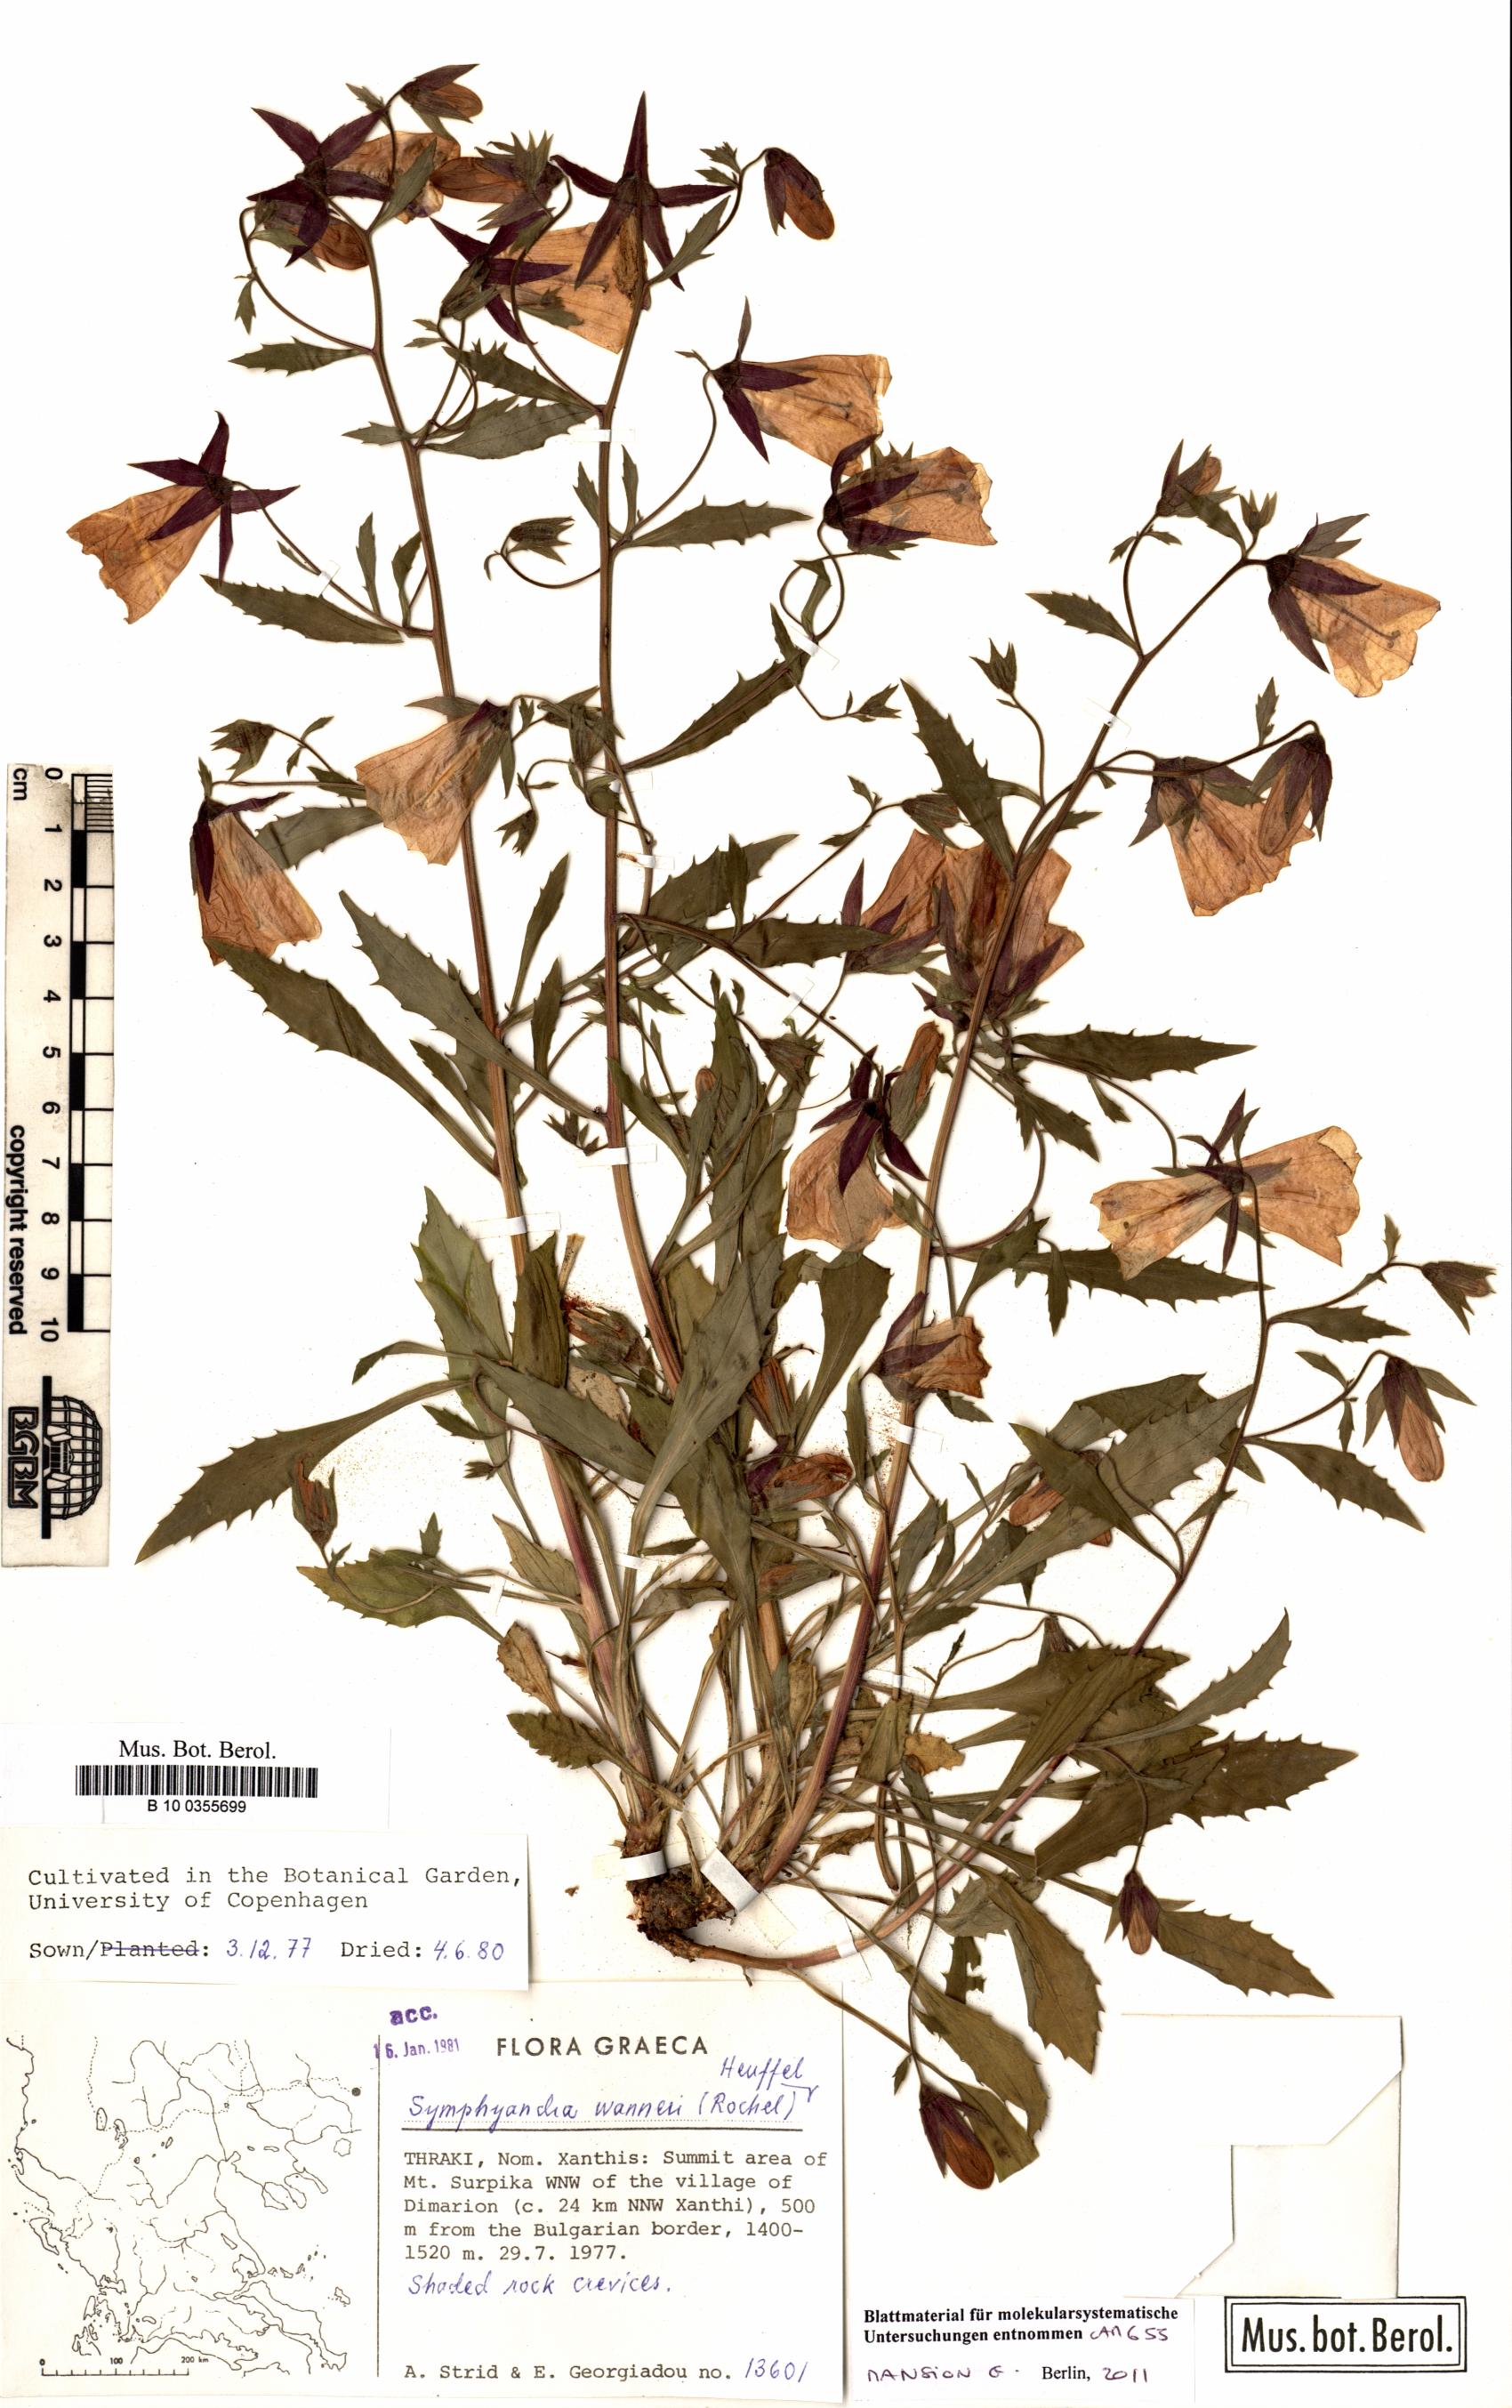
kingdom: Plantae
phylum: Tracheophyta
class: Magnoliopsida
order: Asterales
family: Campanulaceae
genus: Campanula
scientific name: Campanula wanneri
